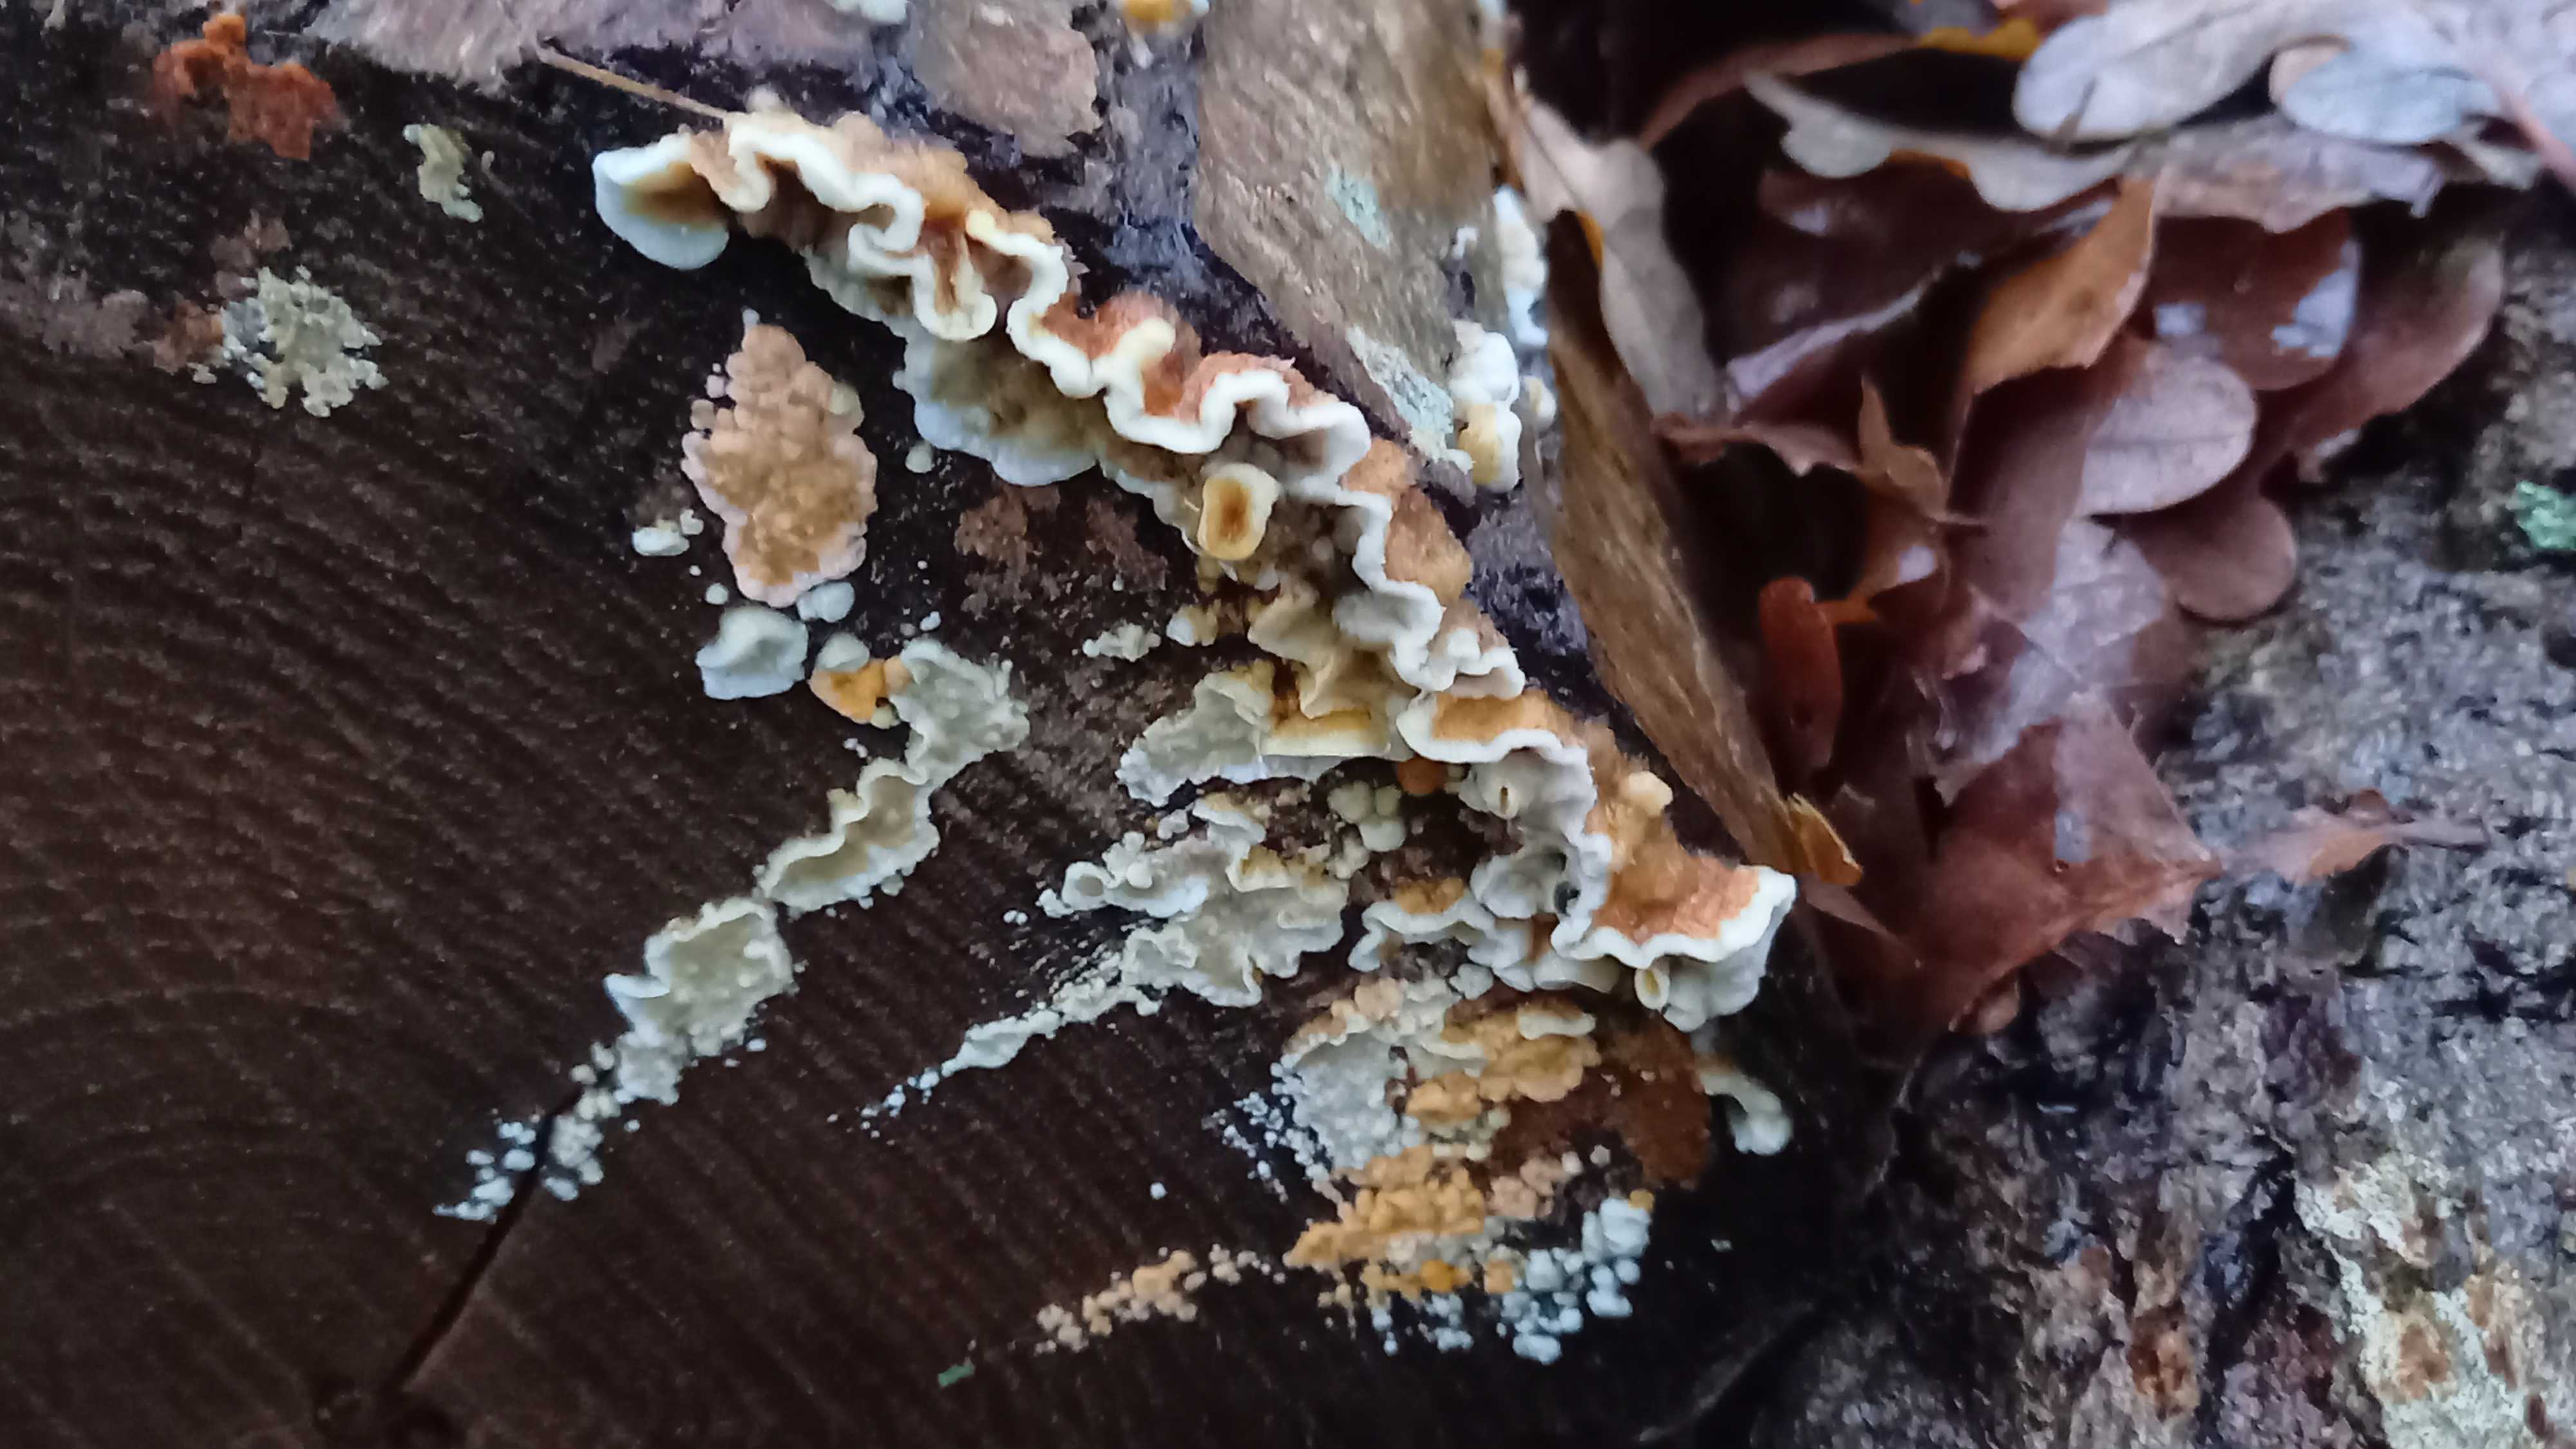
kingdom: Fungi
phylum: Basidiomycota
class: Agaricomycetes
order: Russulales
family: Stereaceae
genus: Stereum
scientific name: Stereum hirsutum
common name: håret lædersvamp
